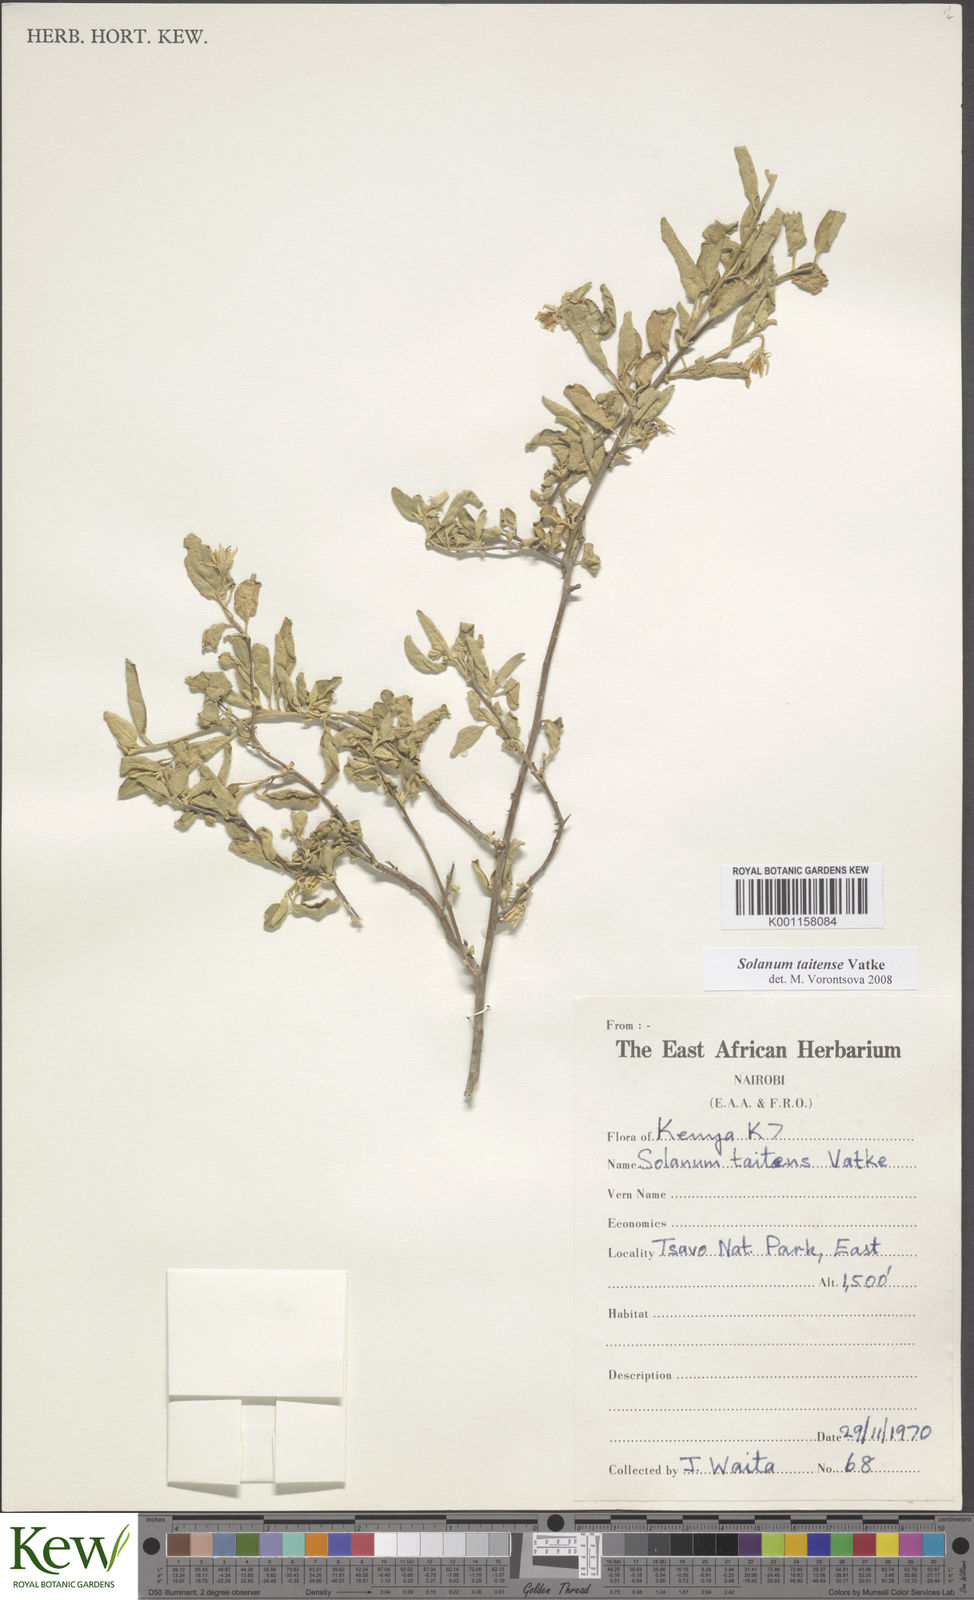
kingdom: Plantae
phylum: Tracheophyta
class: Magnoliopsida
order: Solanales
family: Solanaceae
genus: Solanum
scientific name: Solanum taitense
